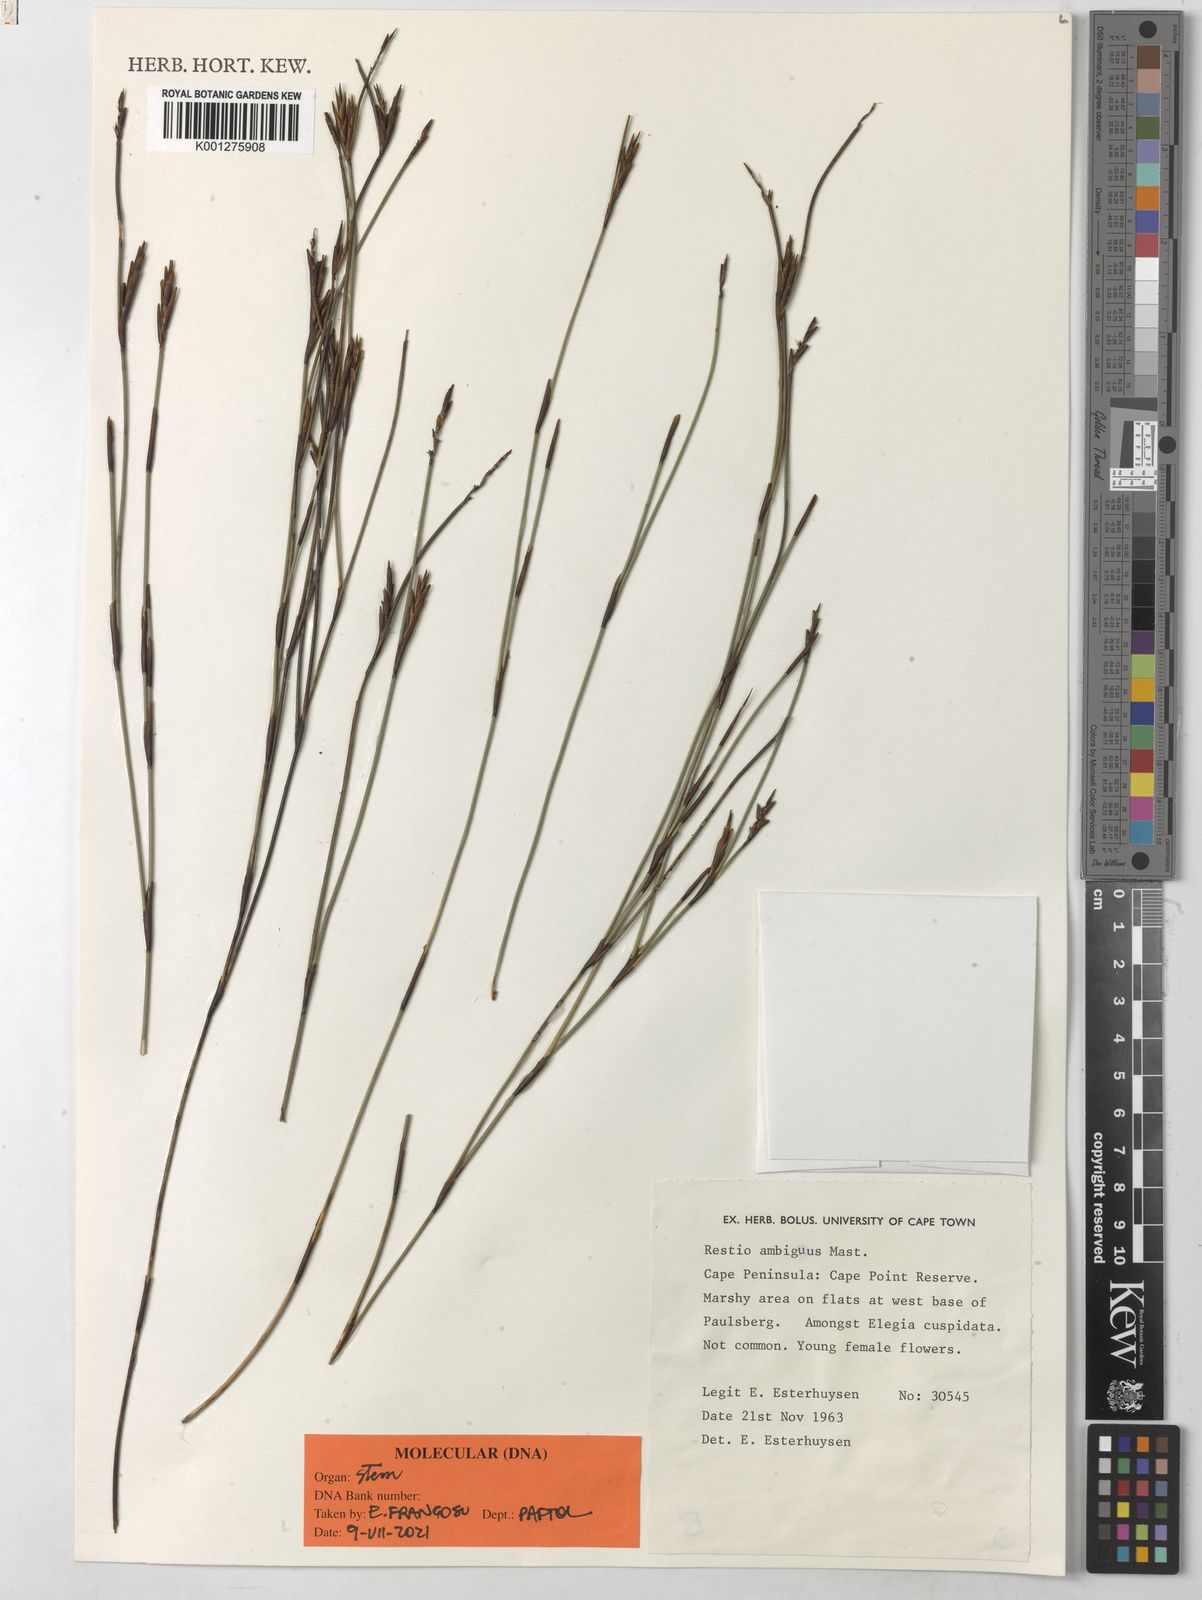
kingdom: Plantae
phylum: Tracheophyta
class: Liliopsida
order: Poales
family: Restionaceae
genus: Soroveta
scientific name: Soroveta ambigua
